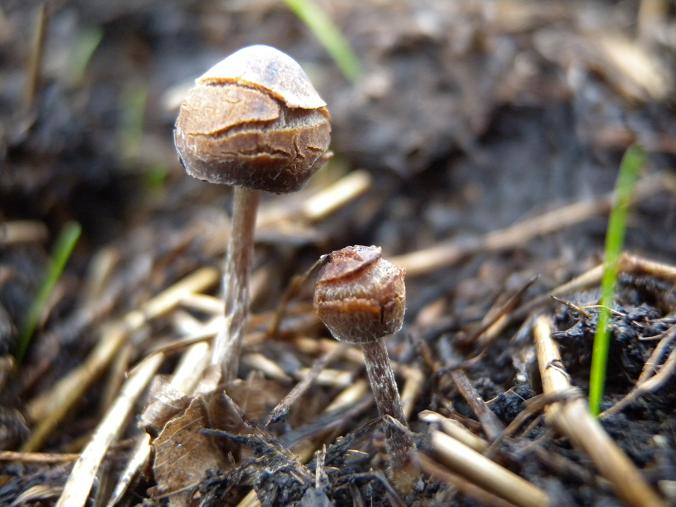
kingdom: Fungi
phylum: Basidiomycota
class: Agaricomycetes
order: Agaricales
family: Psathyrellaceae
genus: Psathyrella
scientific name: Psathyrella potteri
